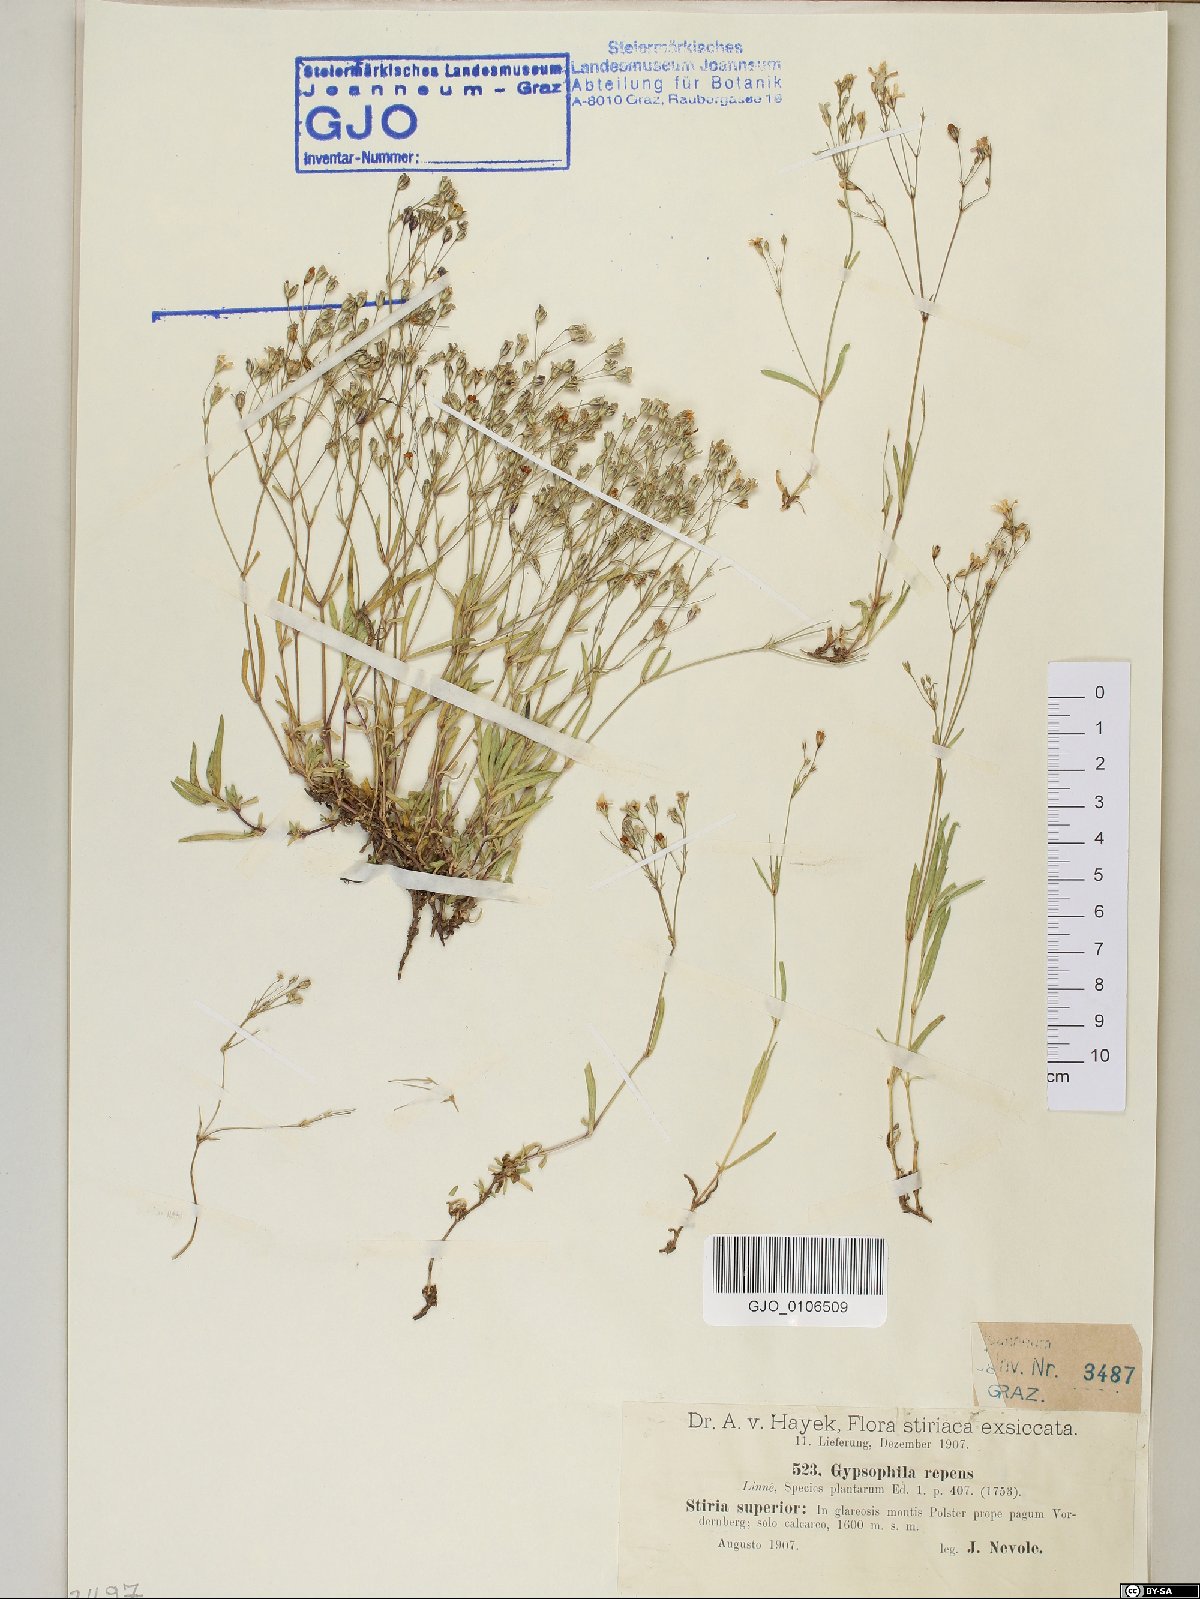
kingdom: Plantae
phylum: Tracheophyta
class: Magnoliopsida
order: Caryophyllales
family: Caryophyllaceae
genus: Gypsophila
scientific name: Gypsophila repens
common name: Creeping baby's-breath
